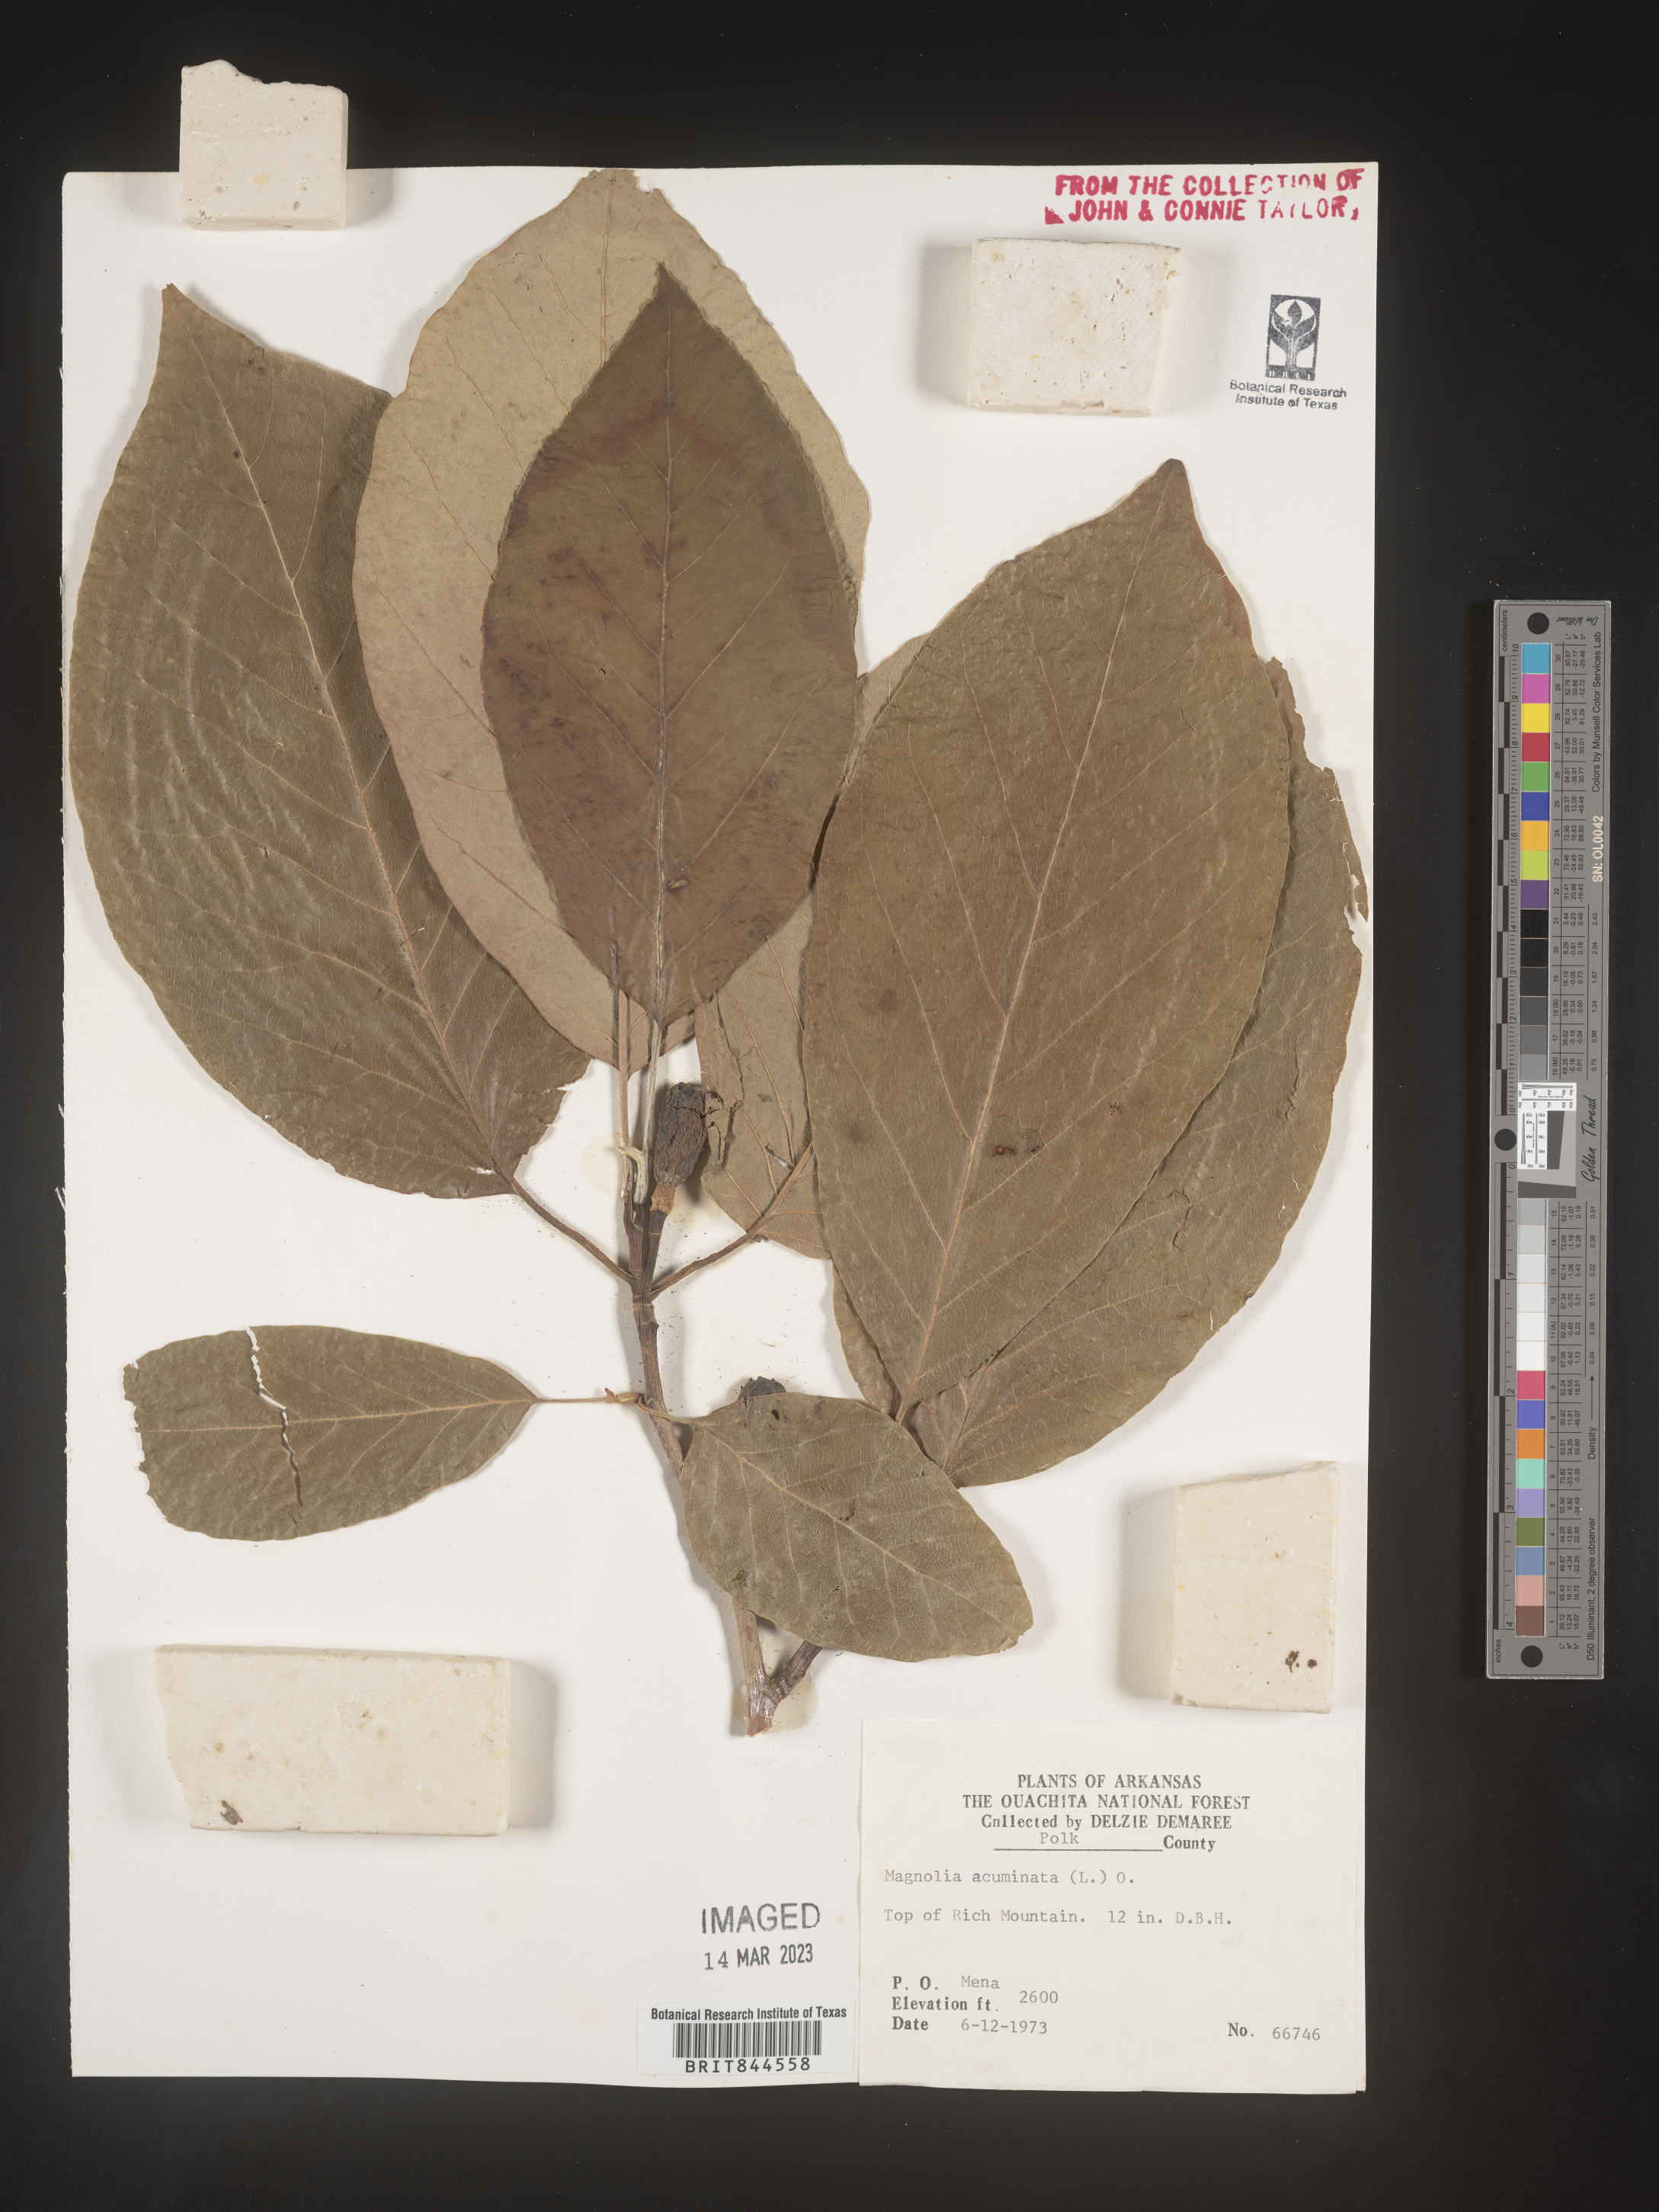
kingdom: Plantae
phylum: Tracheophyta
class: Magnoliopsida
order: Magnoliales
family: Magnoliaceae
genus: Magnolia
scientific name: Magnolia acuminata
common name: Cucumber magnolia
